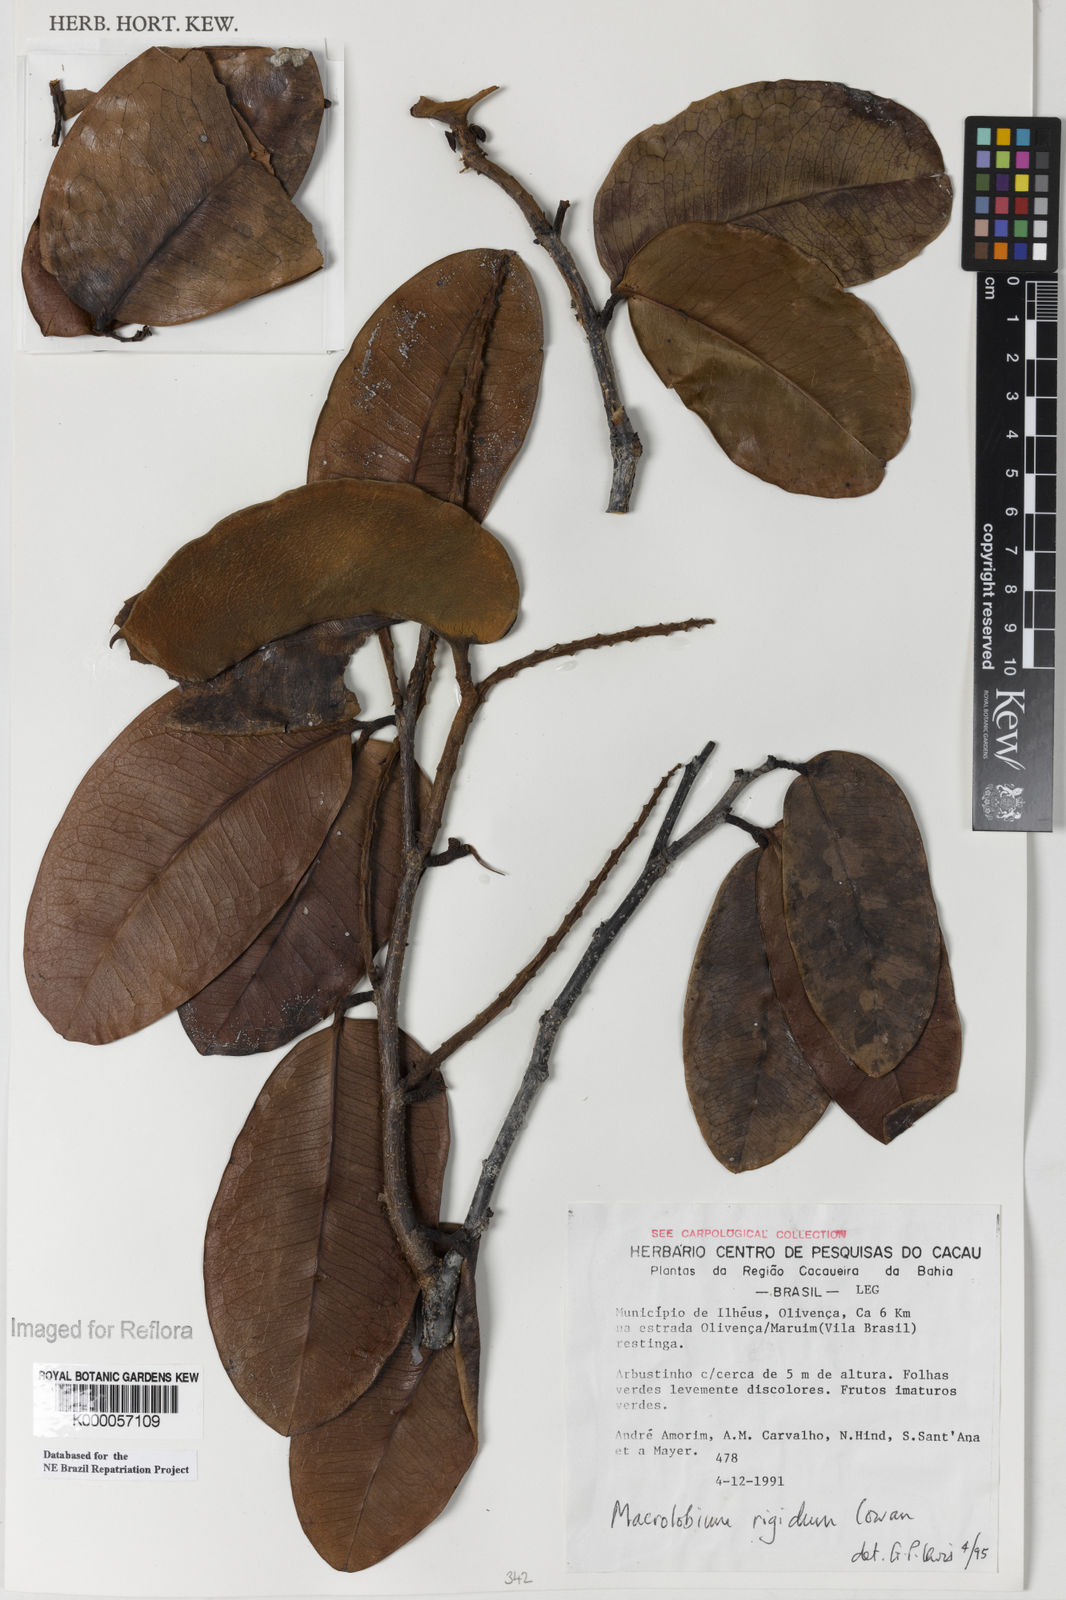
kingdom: Plantae
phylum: Tracheophyta
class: Magnoliopsida
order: Fabales
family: Fabaceae
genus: Macrolobium
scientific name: Macrolobium rigidum
